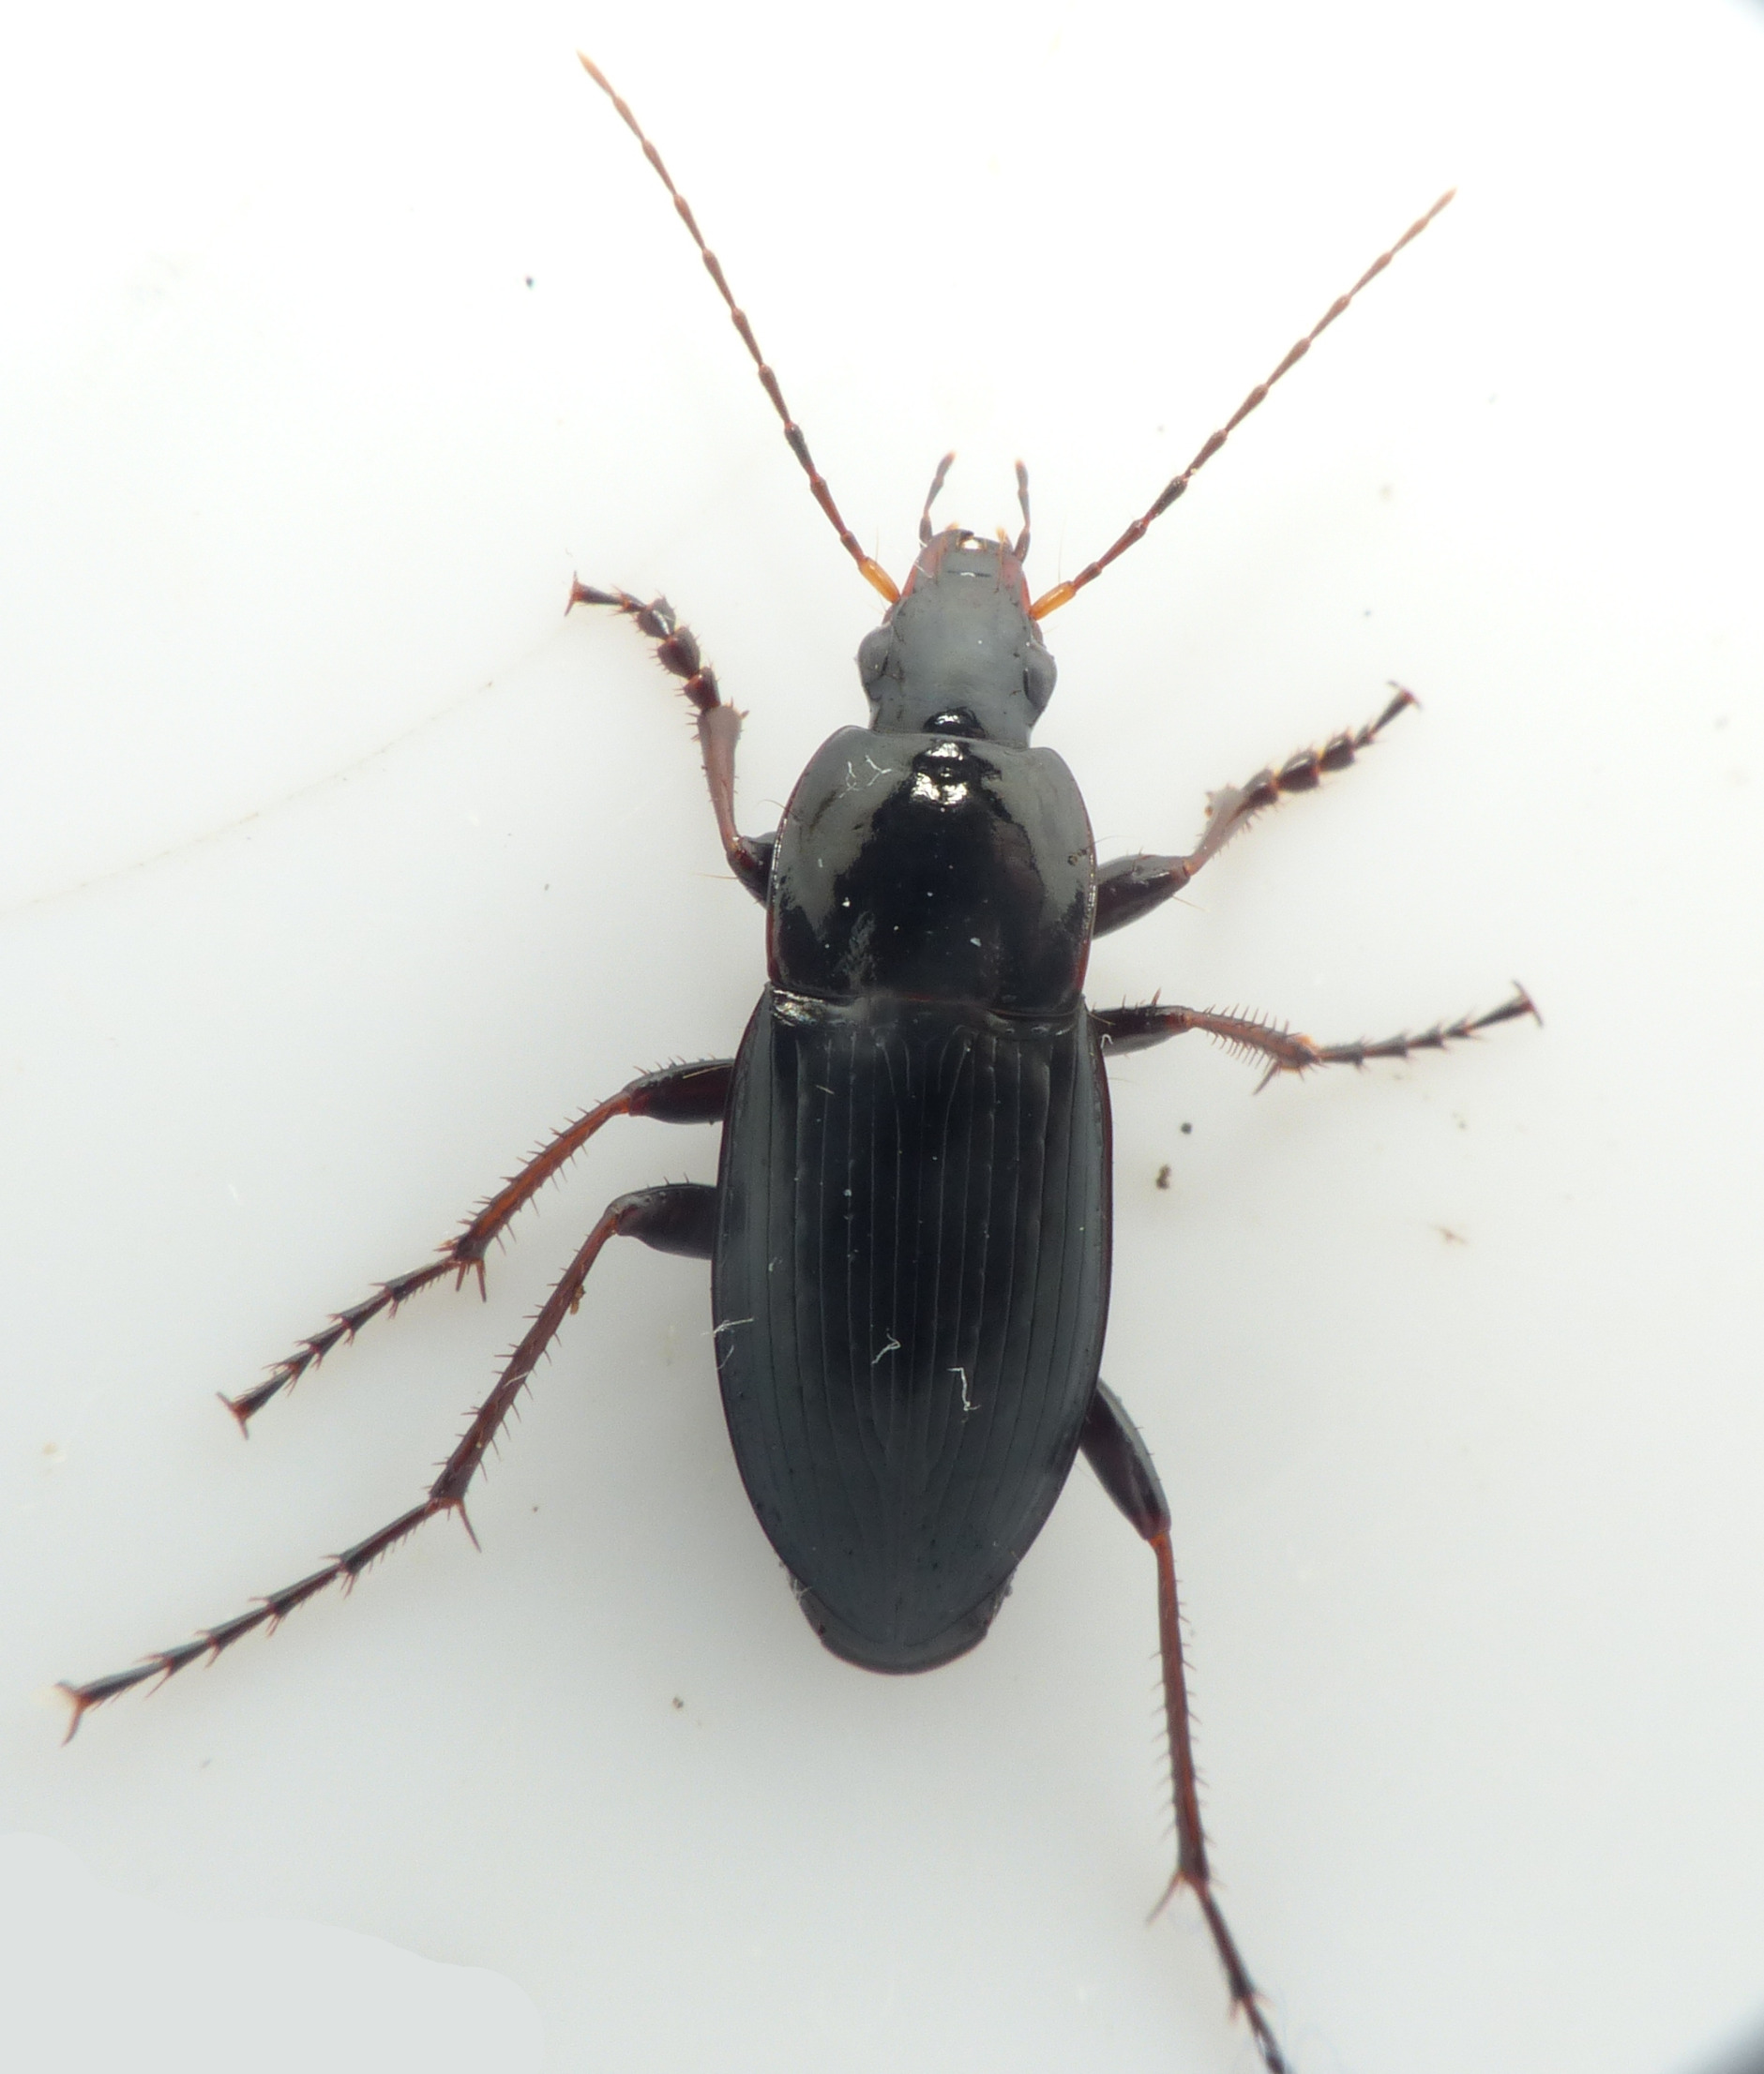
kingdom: Animalia
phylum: Arthropoda
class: Insecta
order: Coleoptera
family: Carabidae
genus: Calathus
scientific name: Calathus fuscipes
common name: Stor torpedoløber
